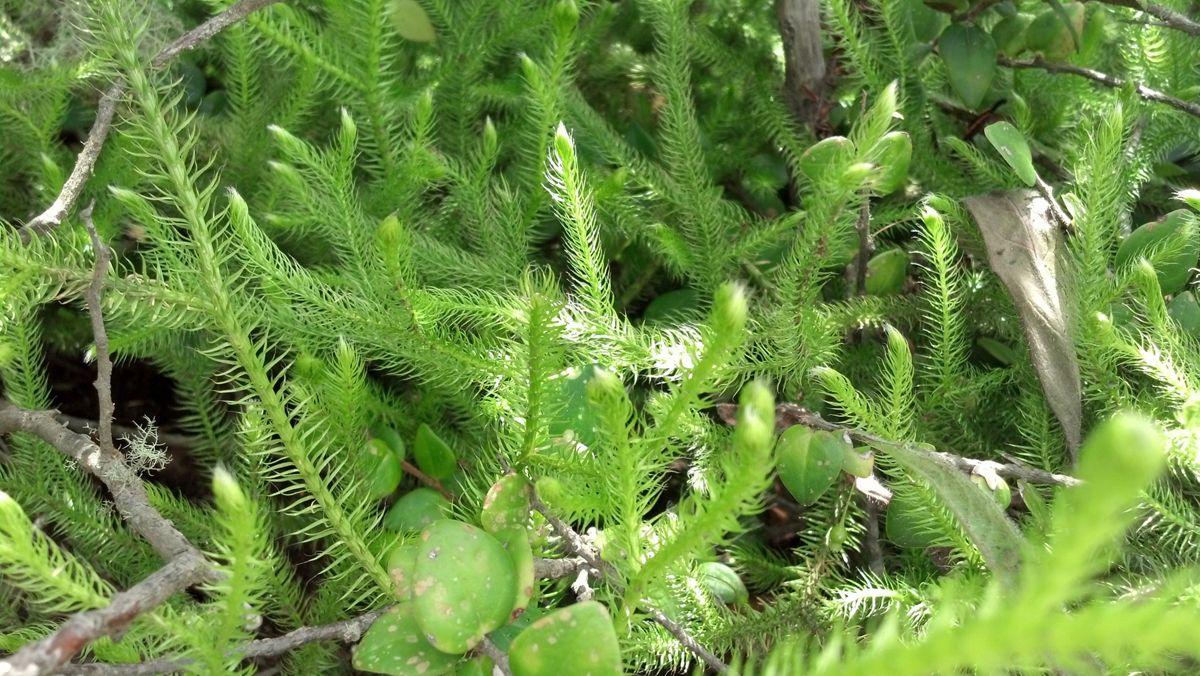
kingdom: Plantae
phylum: Tracheophyta
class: Lycopodiopsida
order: Lycopodiales
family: Lycopodiaceae
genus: Lycopodium
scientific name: Lycopodium clavatum
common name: Stag's-horn clubmoss
